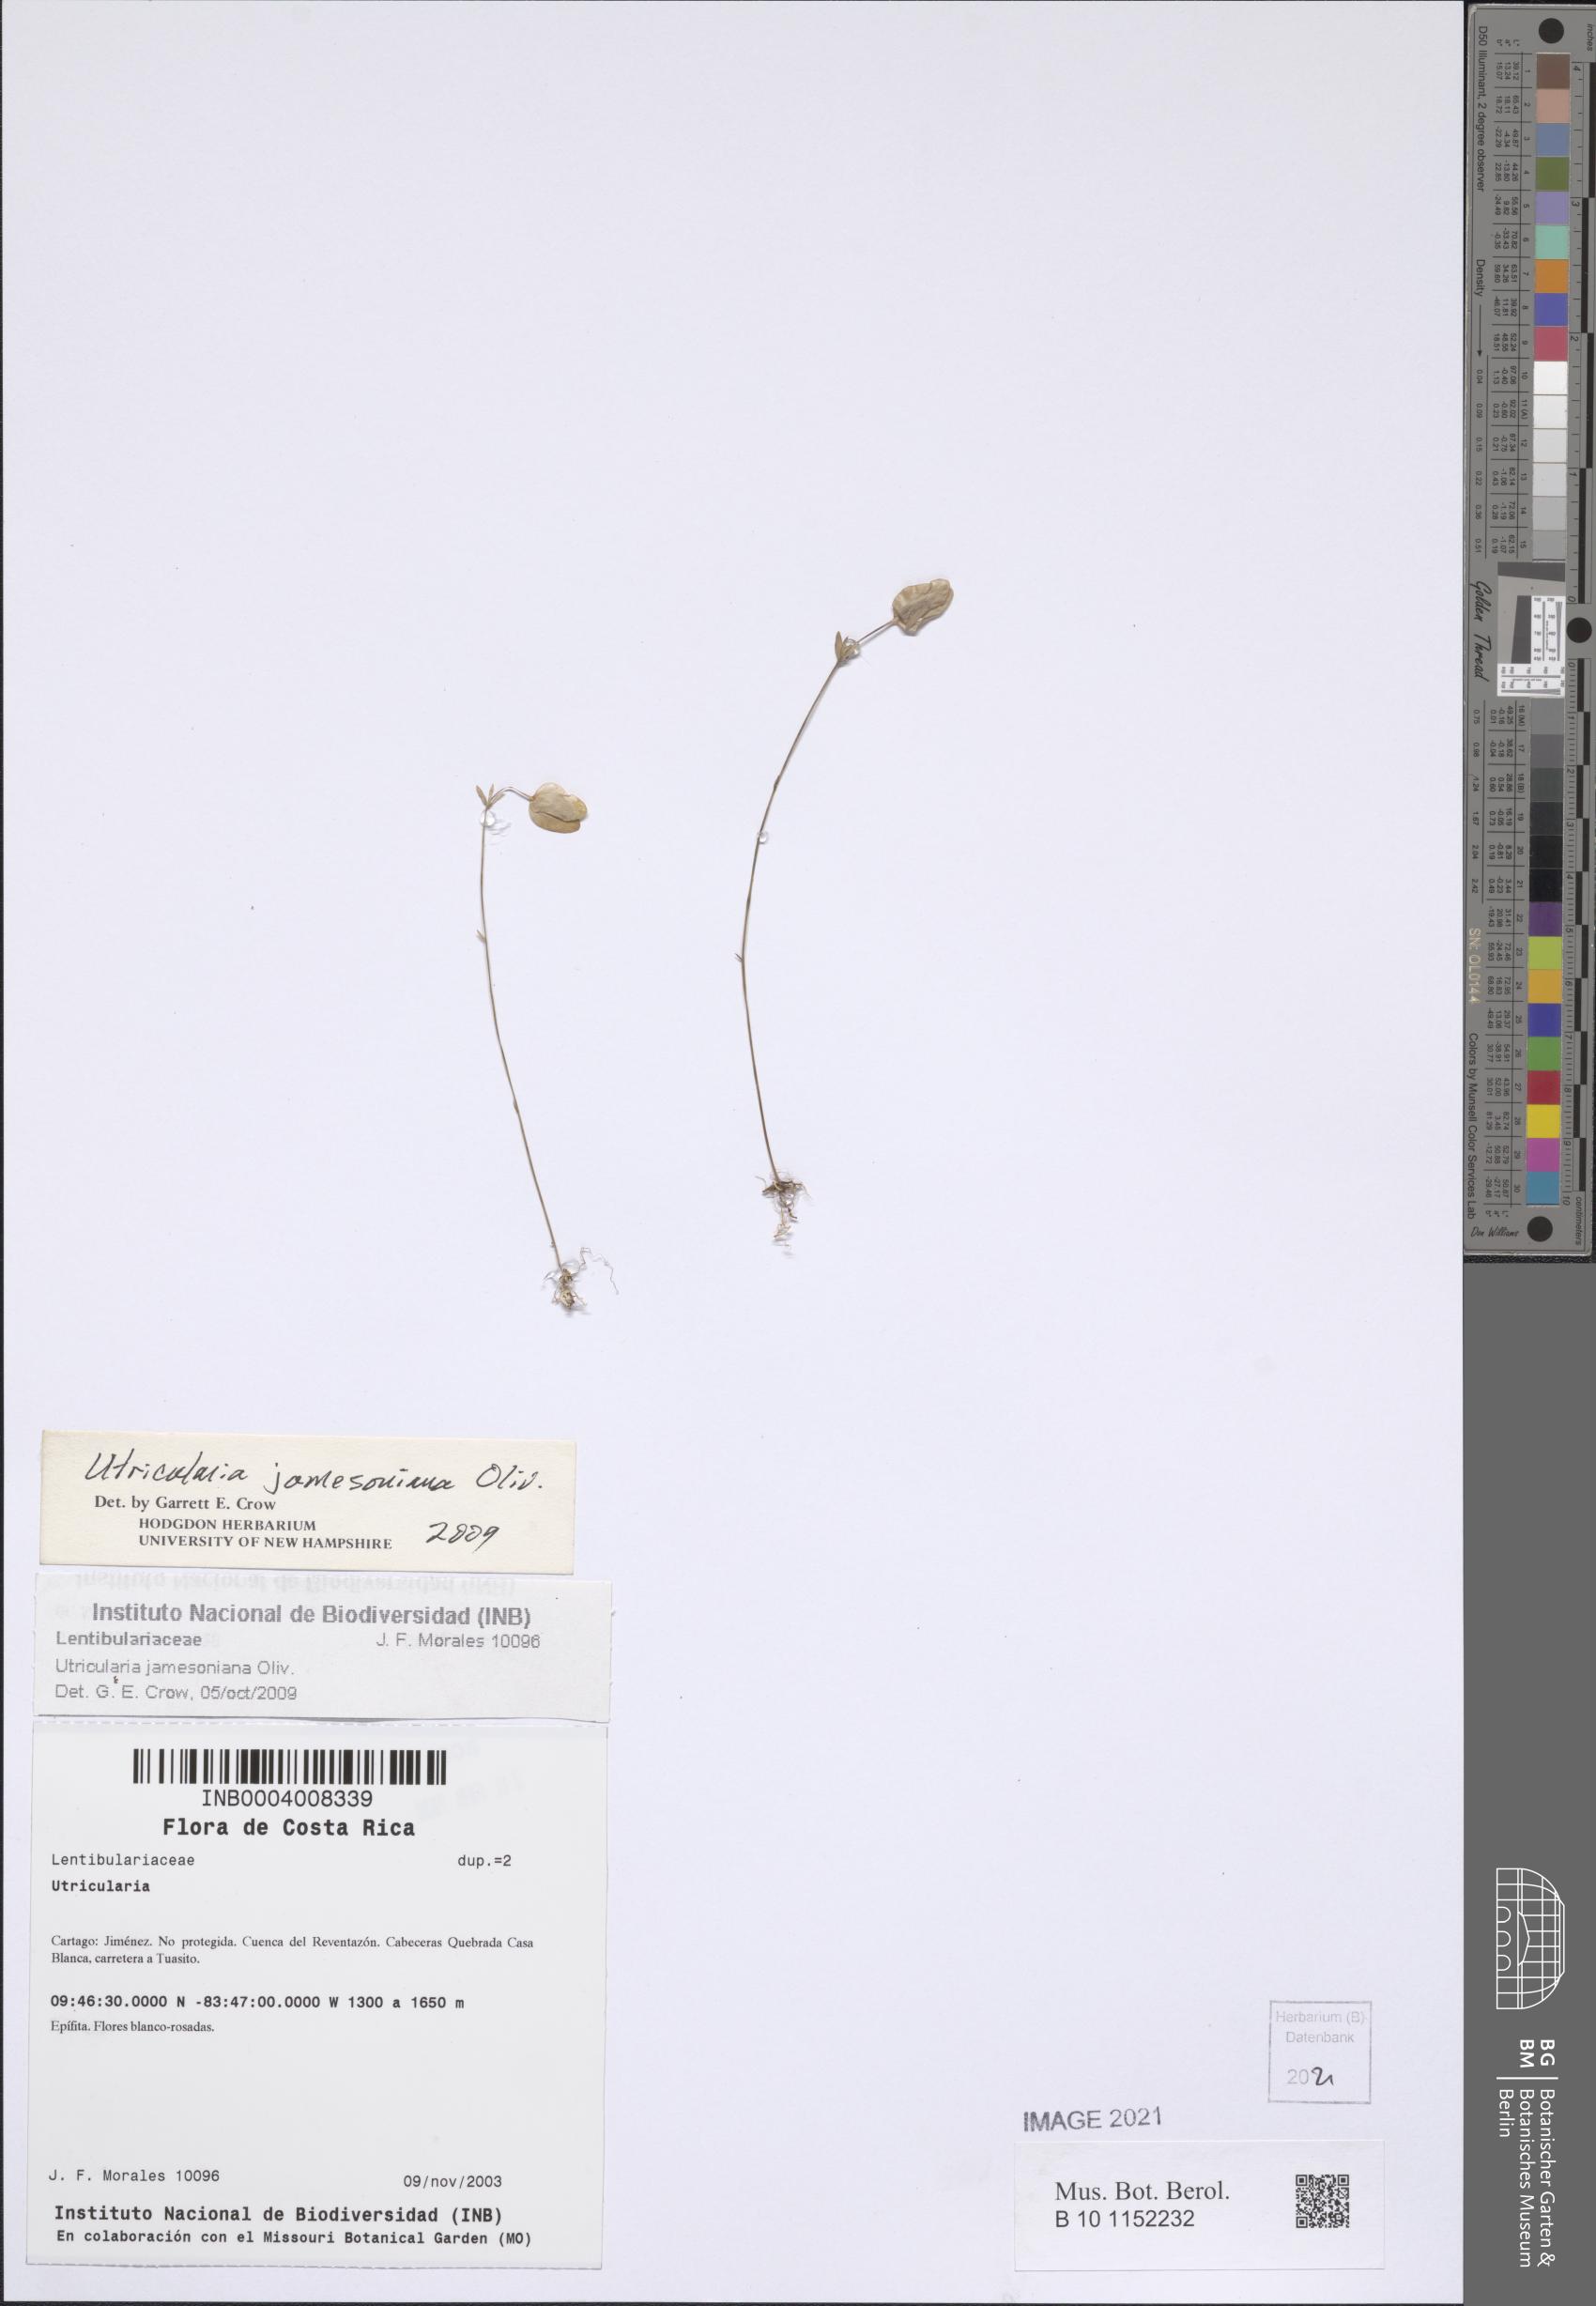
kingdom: Plantae
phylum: Tracheophyta
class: Magnoliopsida
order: Lamiales
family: Lentibulariaceae
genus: Utricularia
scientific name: Utricularia jamesoniana
